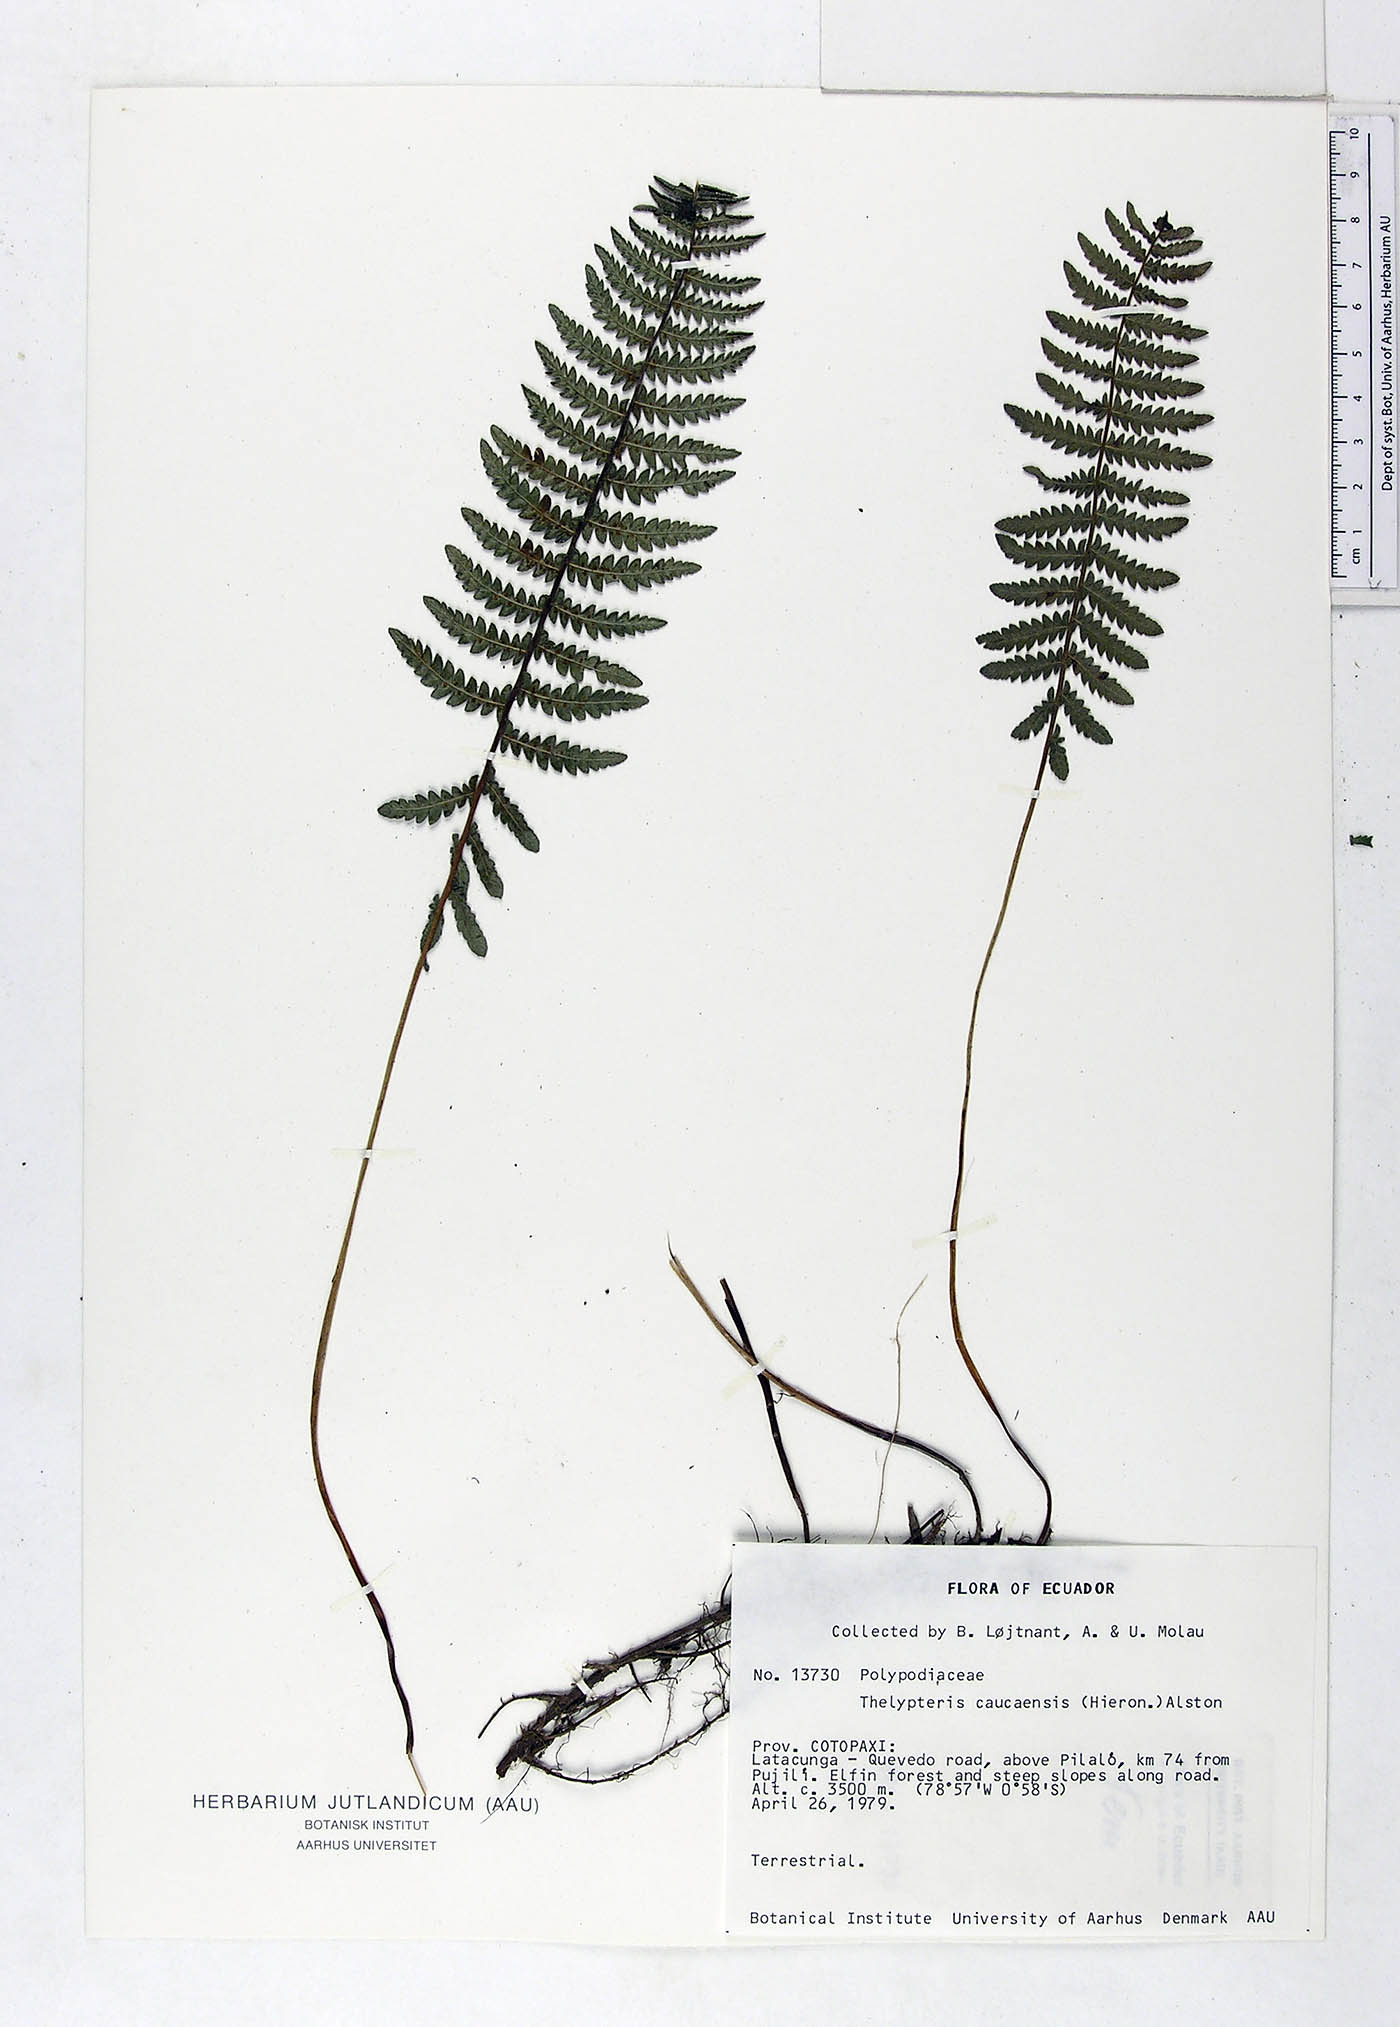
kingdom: Plantae
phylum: Tracheophyta
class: Polypodiopsida
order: Polypodiales
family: Thelypteridaceae
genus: Amauropelta
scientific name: Amauropelta caucaensis
